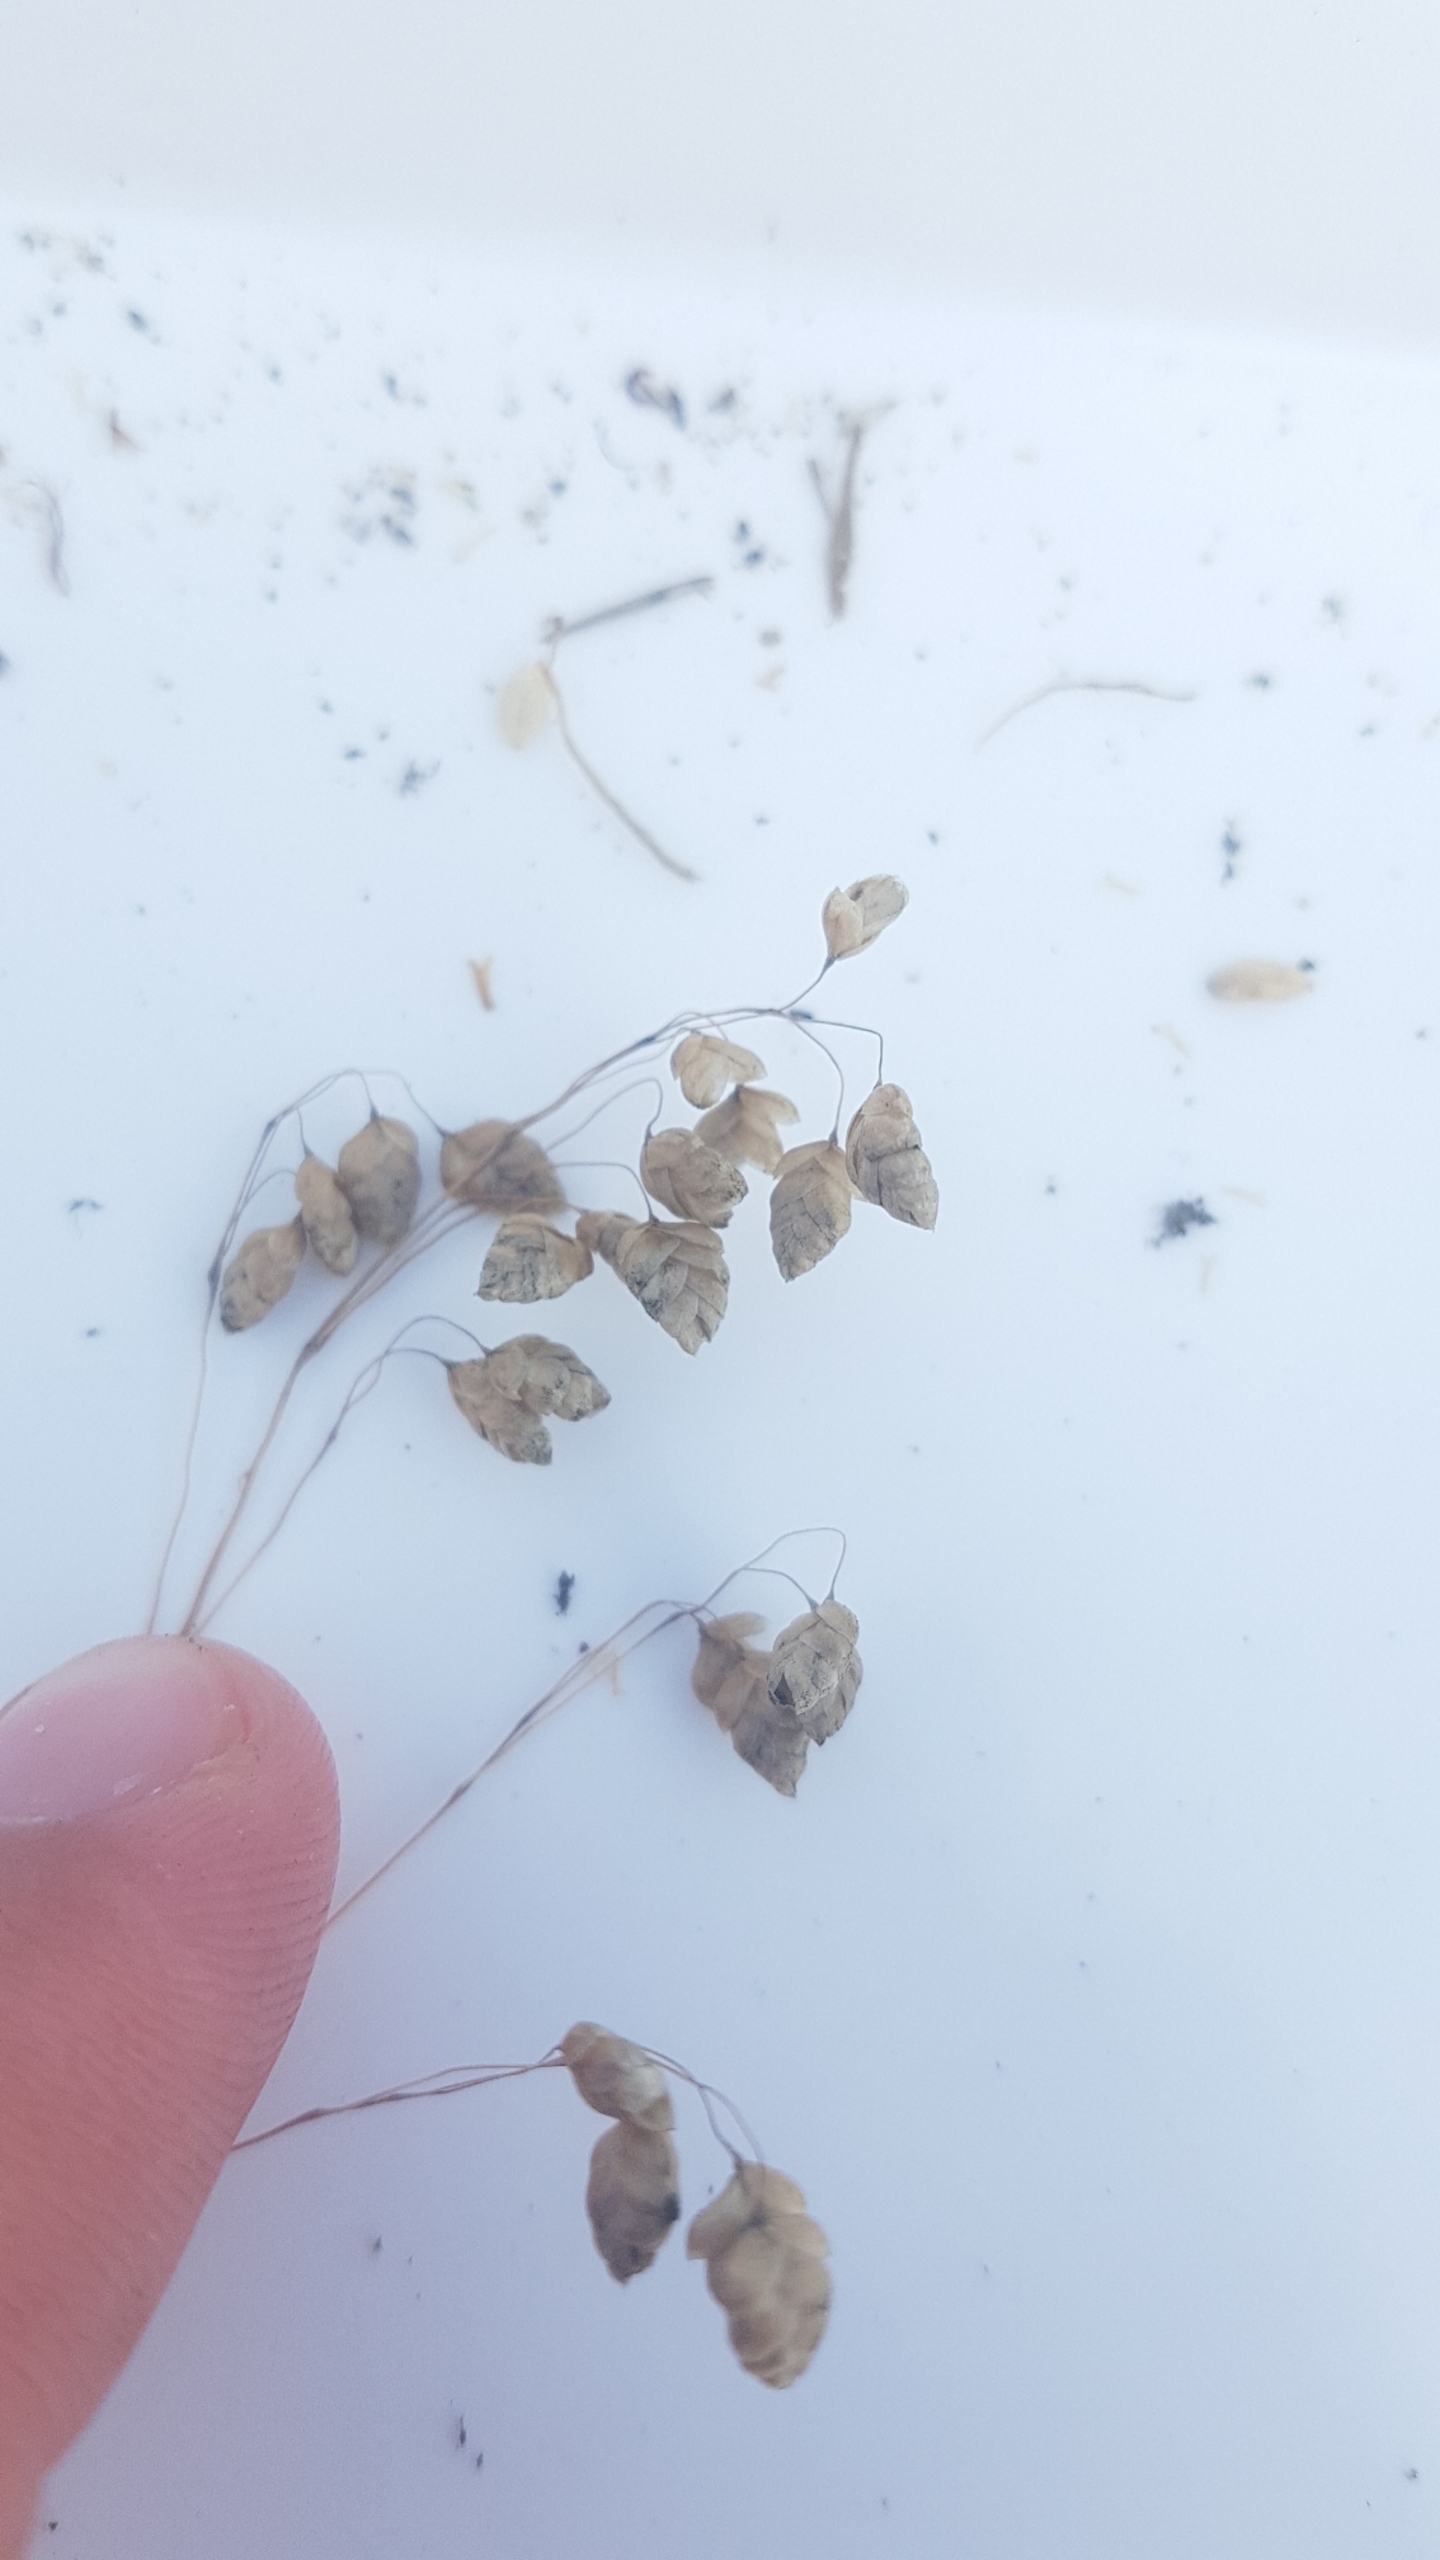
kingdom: Plantae
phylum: Tracheophyta
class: Liliopsida
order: Poales
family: Poaceae
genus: Briza
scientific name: Briza media
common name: Hjertegræs
